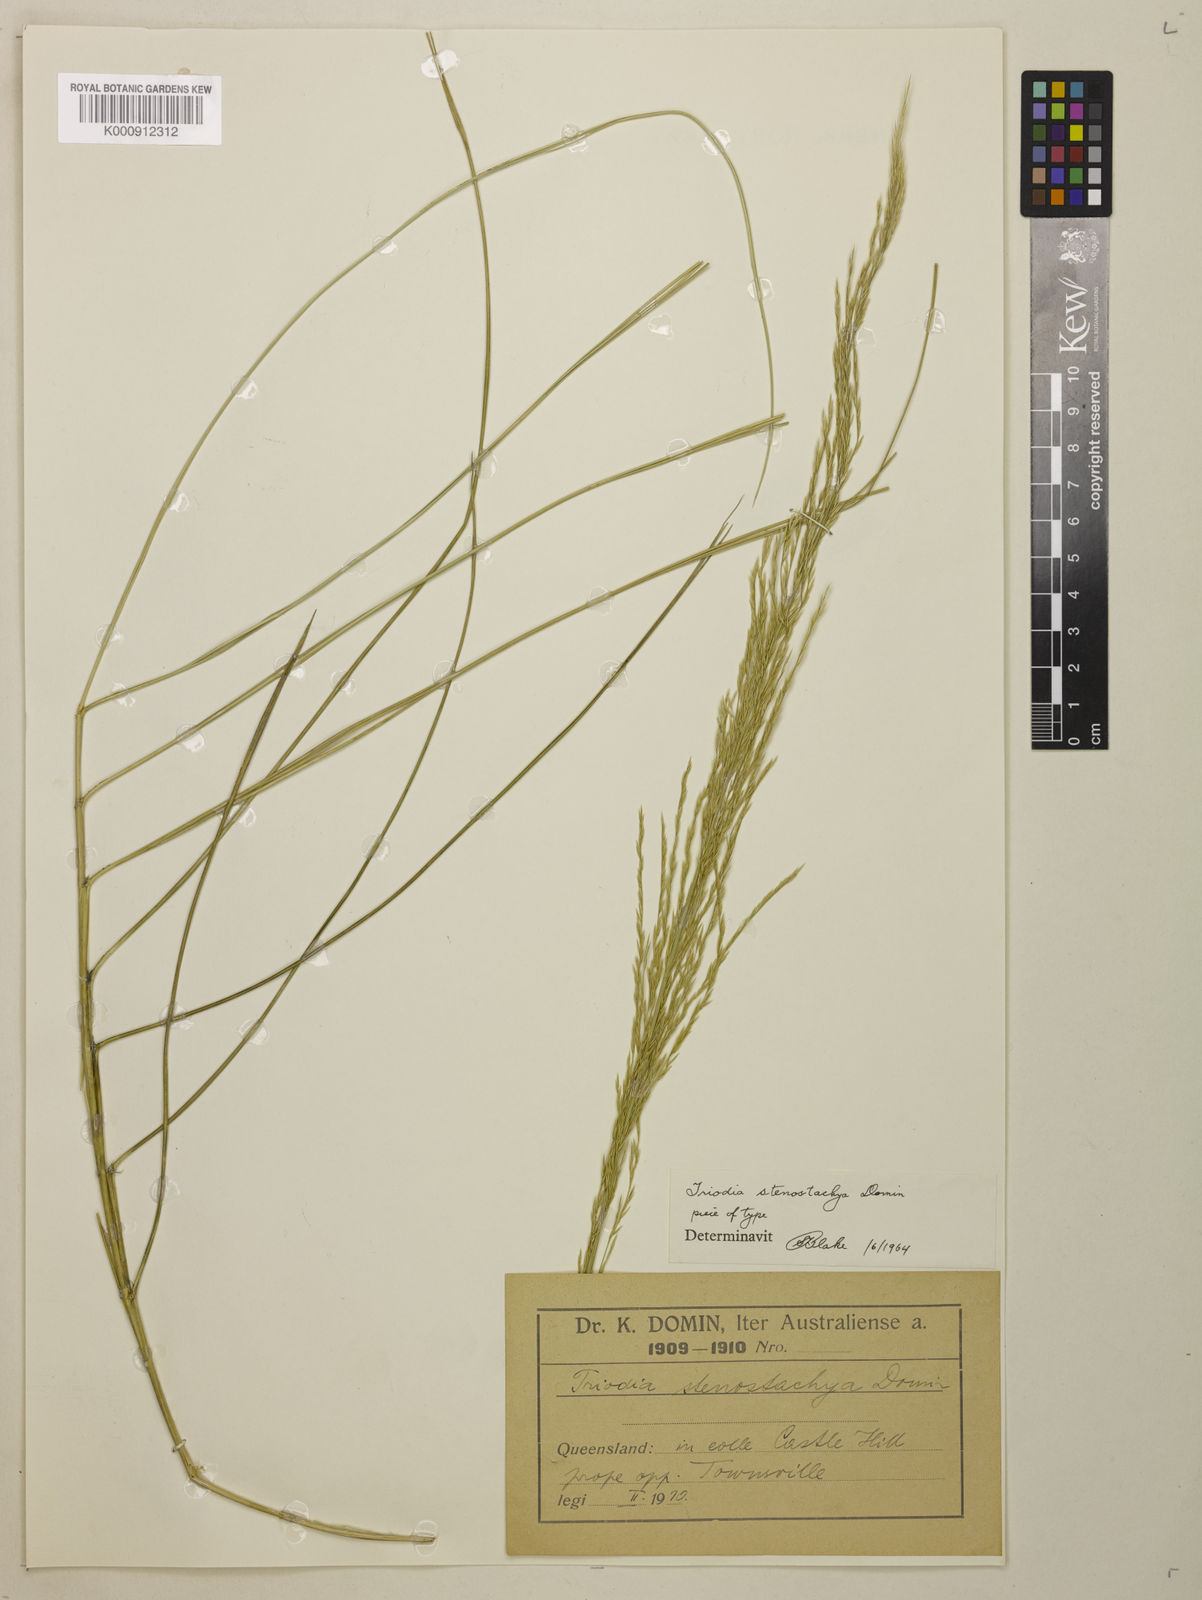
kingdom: Plantae
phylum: Tracheophyta
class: Liliopsida
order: Poales
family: Poaceae
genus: Triodia
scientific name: Triodia stenostachya
